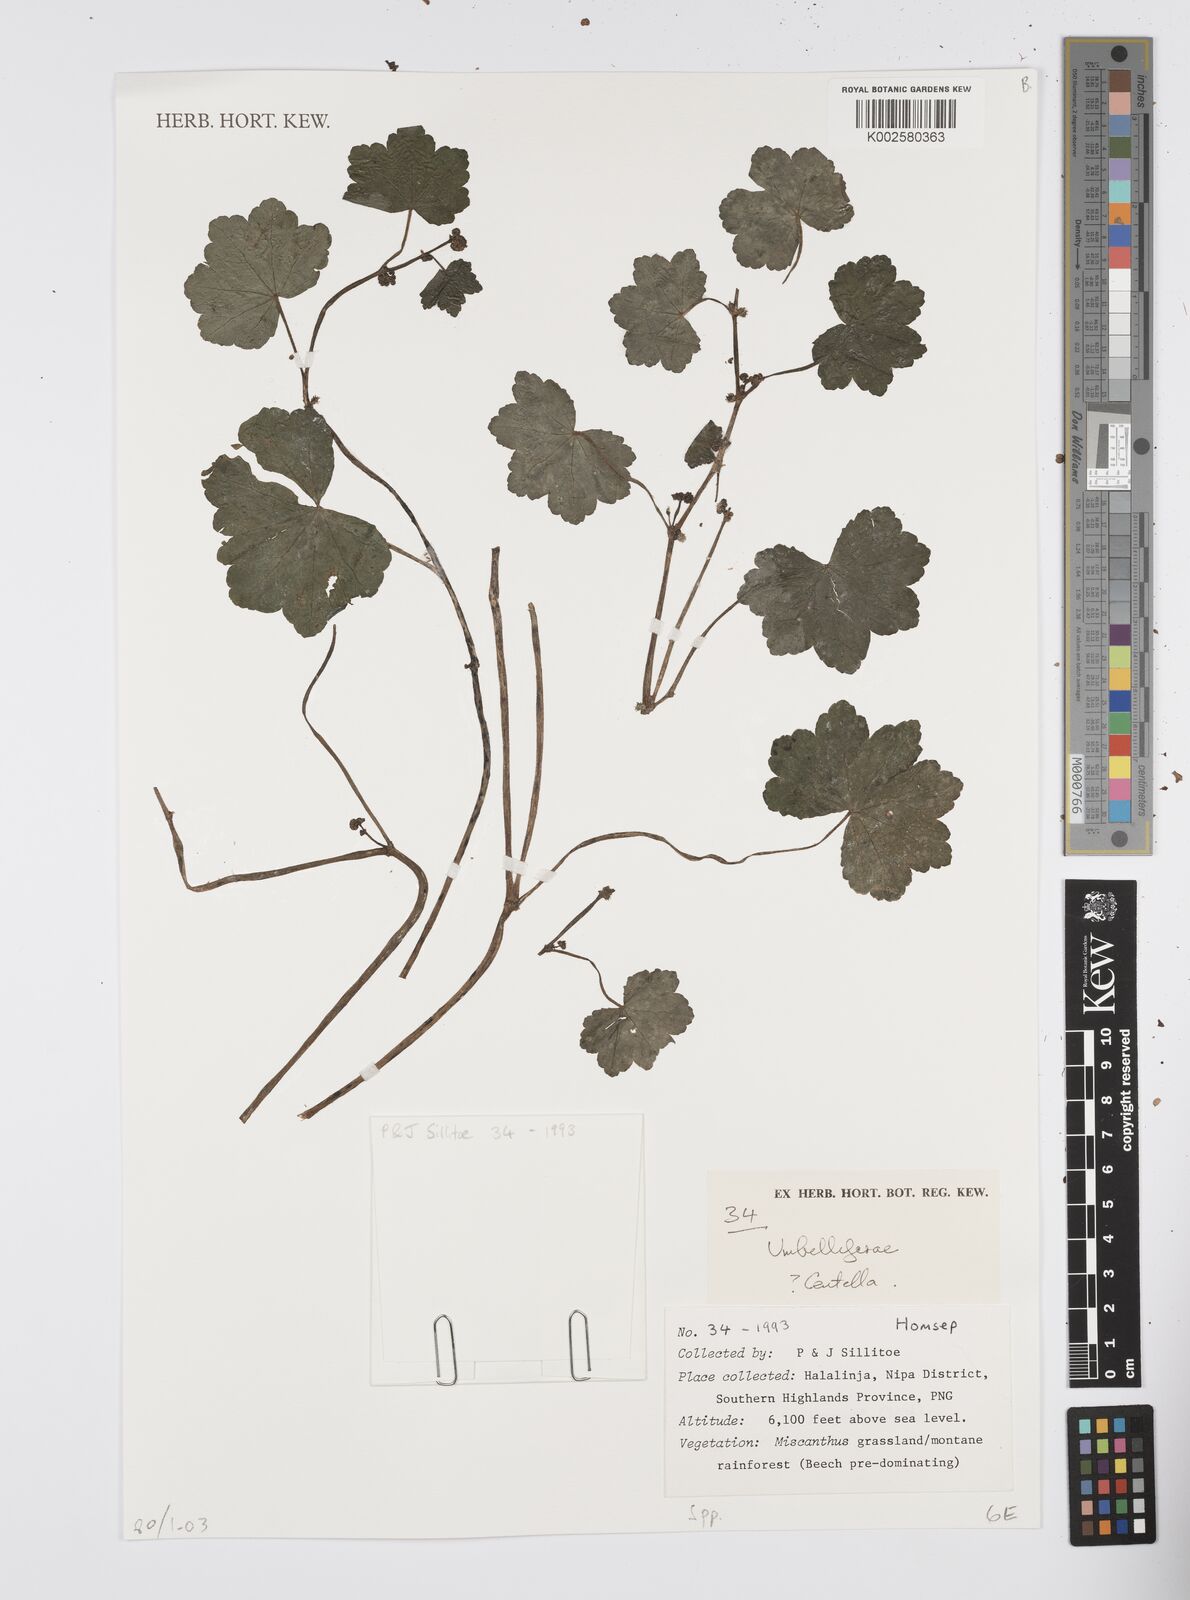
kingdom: Plantae
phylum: Tracheophyta
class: Magnoliopsida
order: Apiales
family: Apiaceae
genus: Centella
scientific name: Centella
